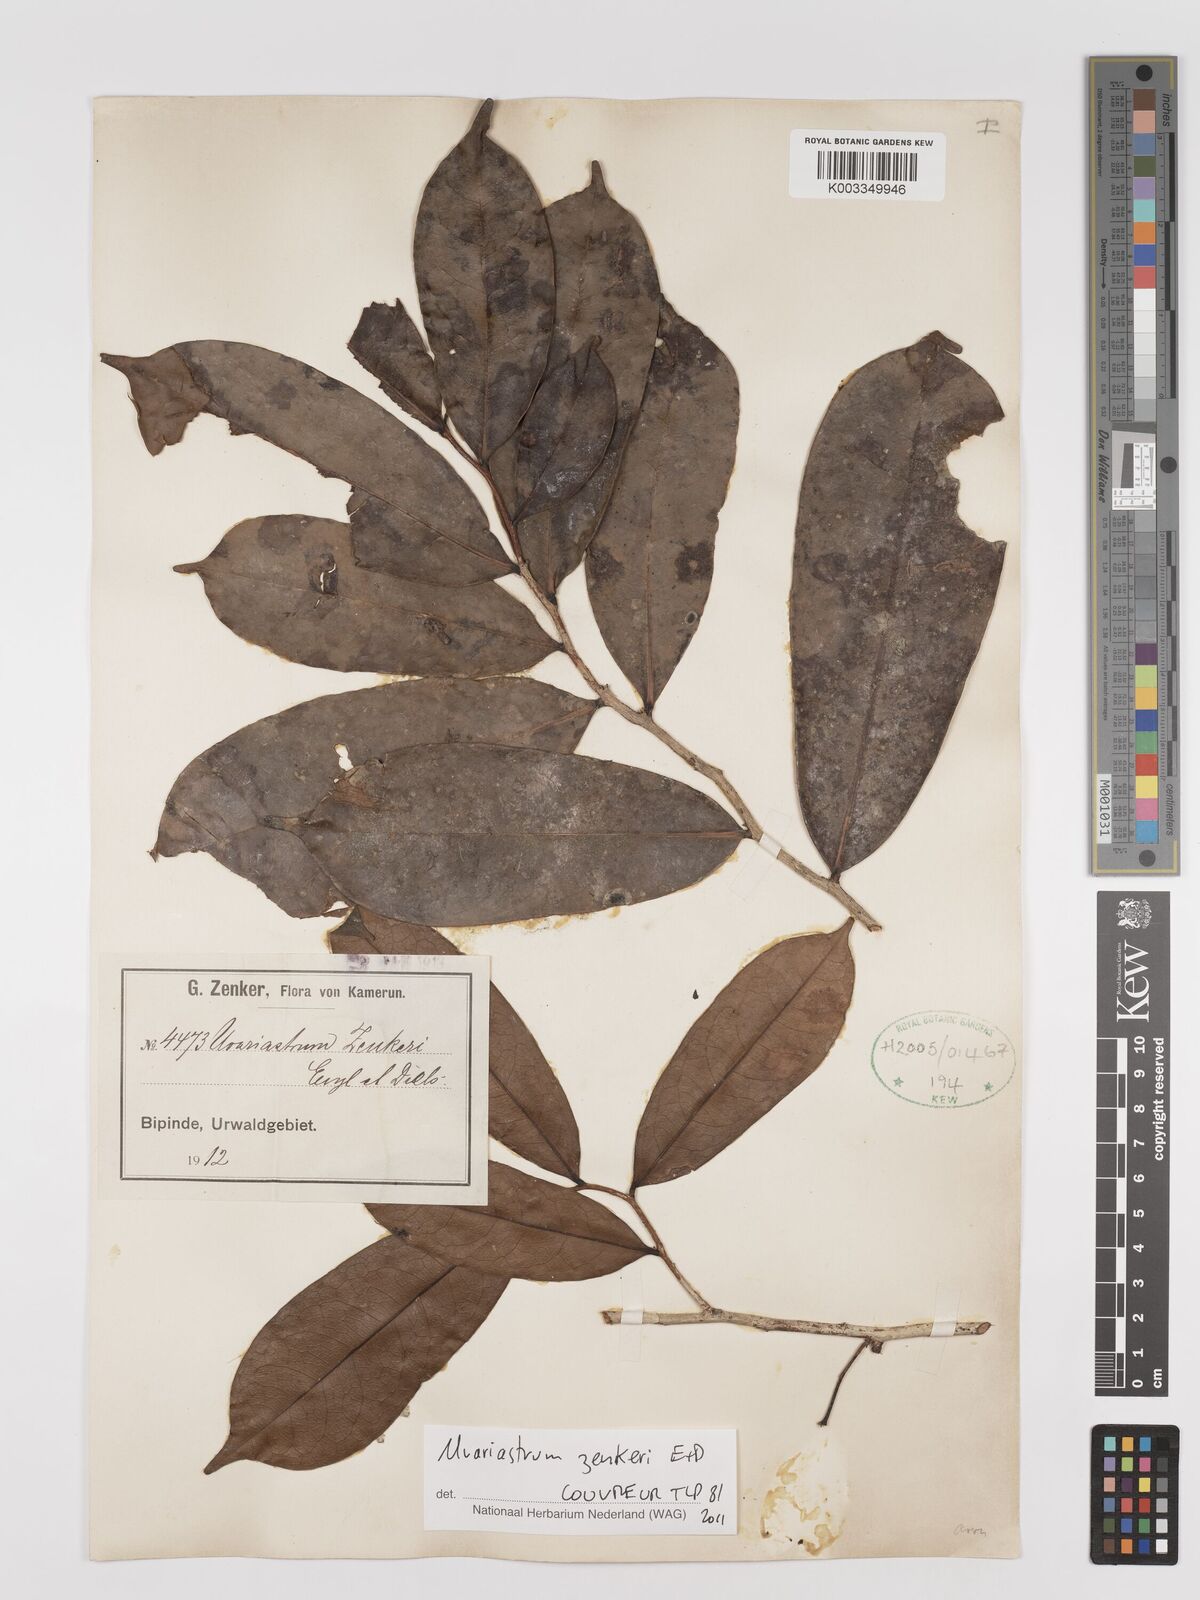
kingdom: Plantae
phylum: Tracheophyta
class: Magnoliopsida
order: Magnoliales
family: Annonaceae
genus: Uvariastrum
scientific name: Uvariastrum zenkeri
